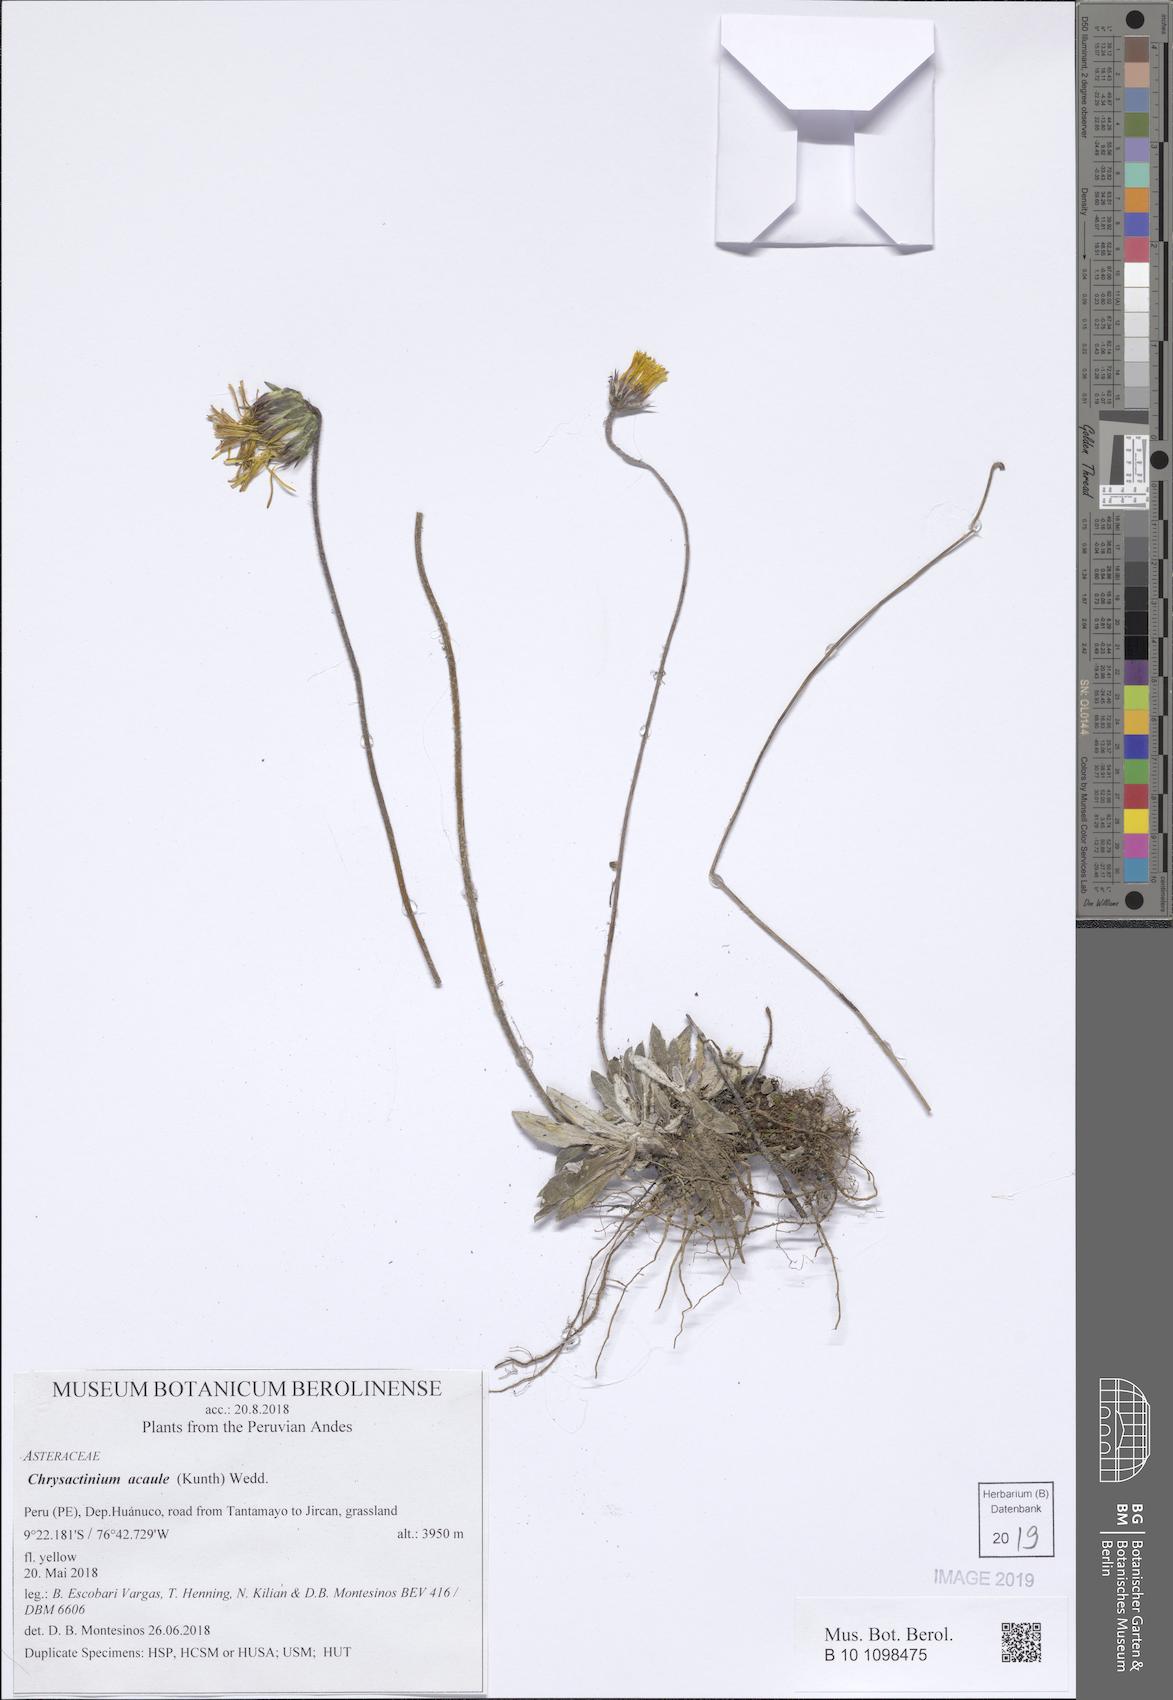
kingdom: Plantae
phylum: Tracheophyta
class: Magnoliopsida
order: Asterales
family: Asteraceae
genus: Chrysactinium
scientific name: Chrysactinium acaule
